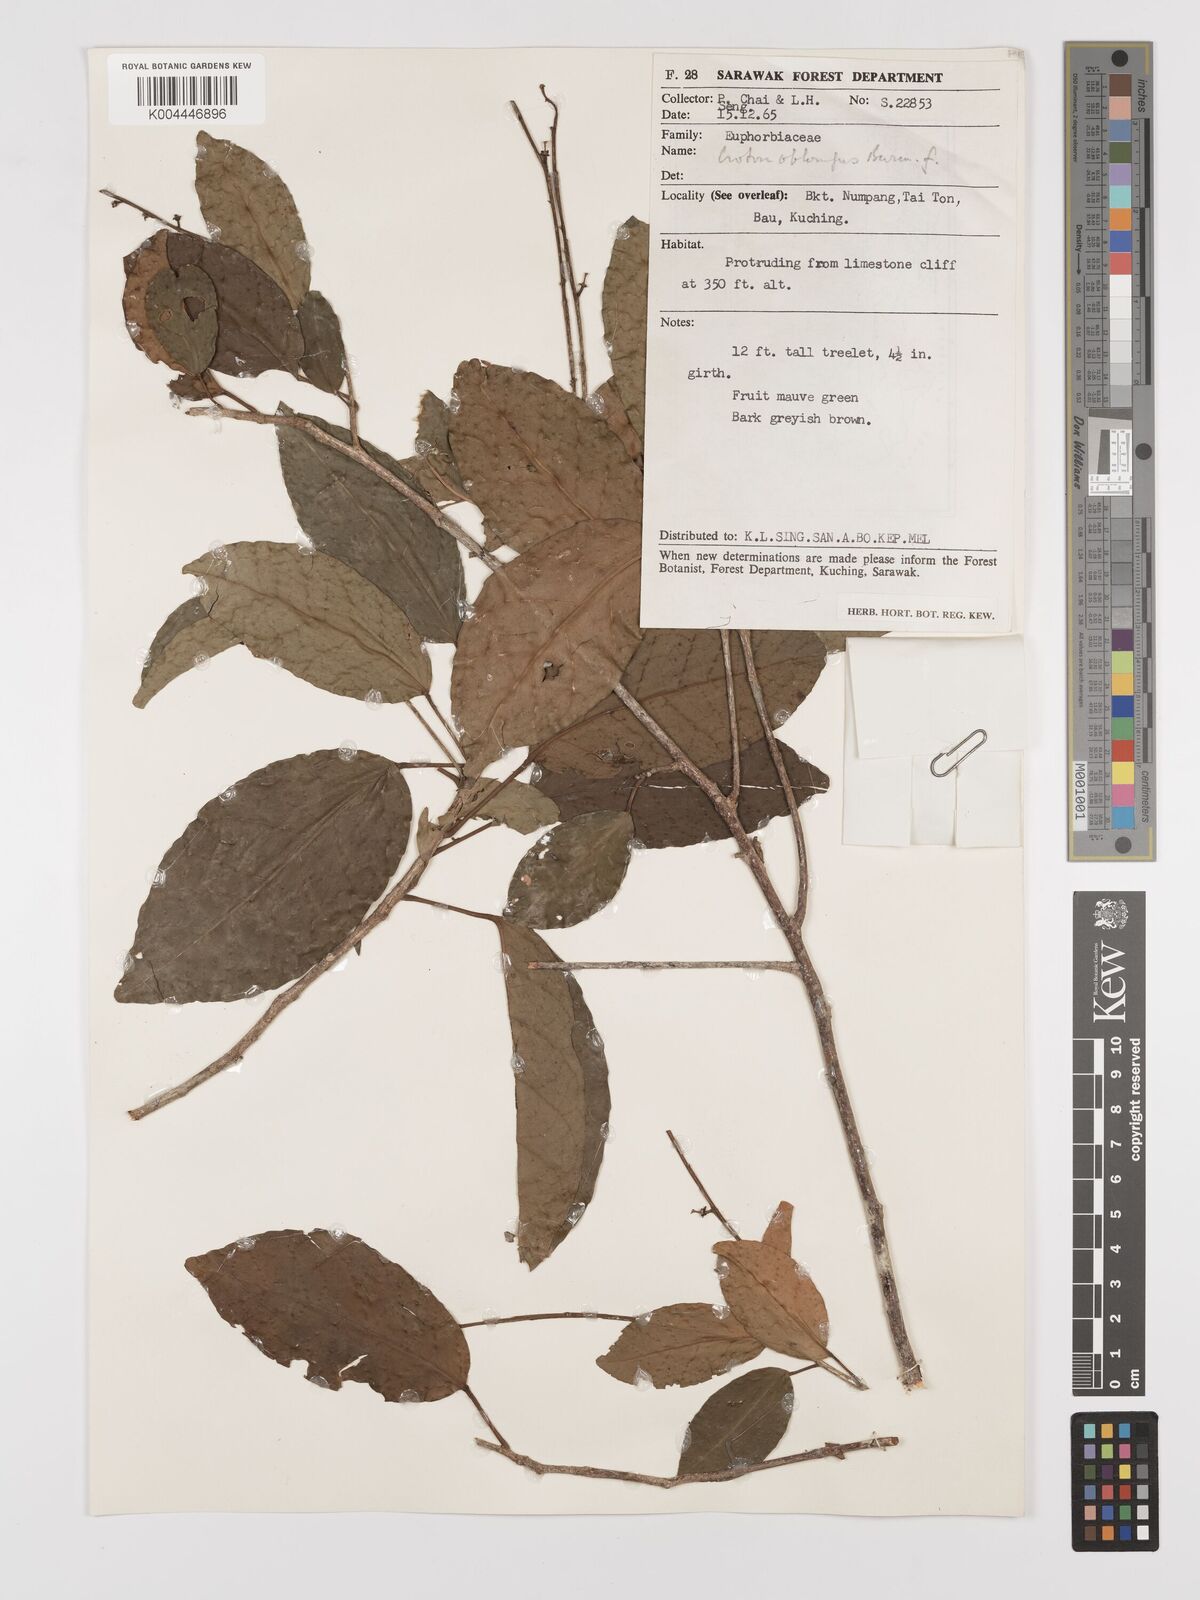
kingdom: Plantae
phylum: Tracheophyta
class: Magnoliopsida
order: Malpighiales
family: Euphorbiaceae
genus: Croton
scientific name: Croton oblongus
